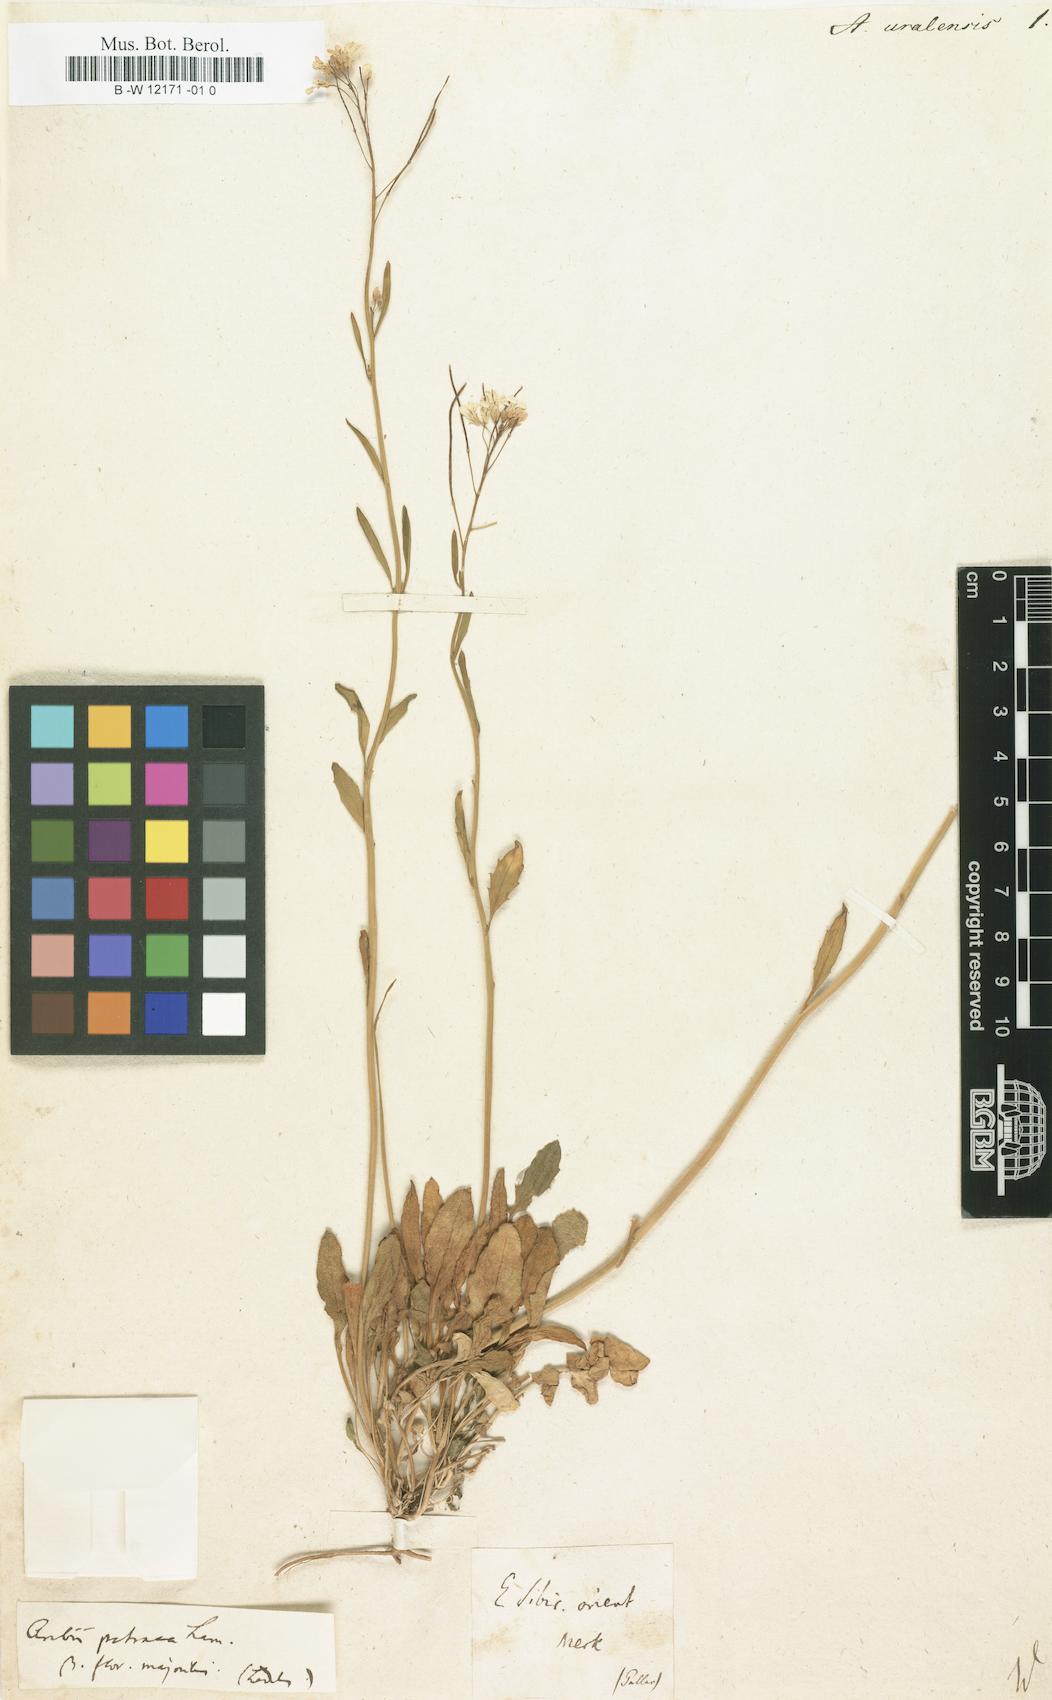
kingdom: Plantae
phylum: Tracheophyta
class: Magnoliopsida
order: Brassicales
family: Brassicaceae
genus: Arabidopsis
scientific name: Arabidopsis lyrata
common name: Lyrate rockcress
